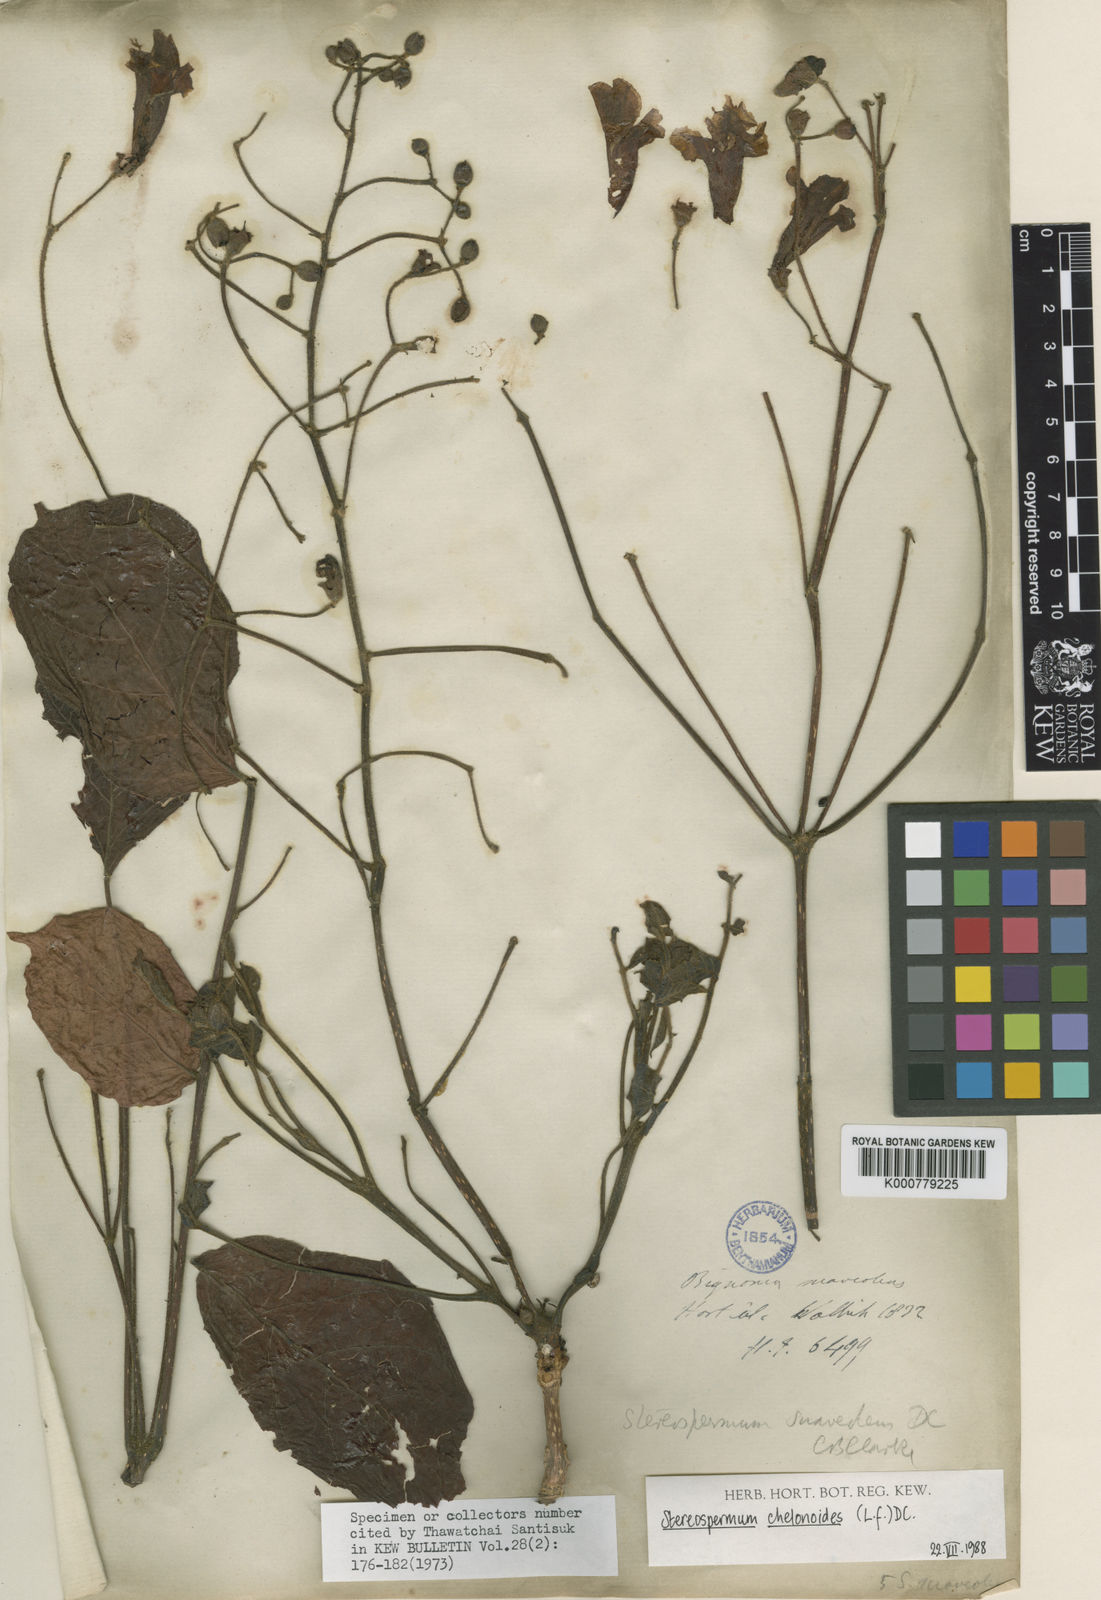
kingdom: Plantae
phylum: Tracheophyta
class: Magnoliopsida
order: Lamiales
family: Bignoniaceae
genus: Stereospermum
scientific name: Stereospermum chelonoides
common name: Fragrant padritree
